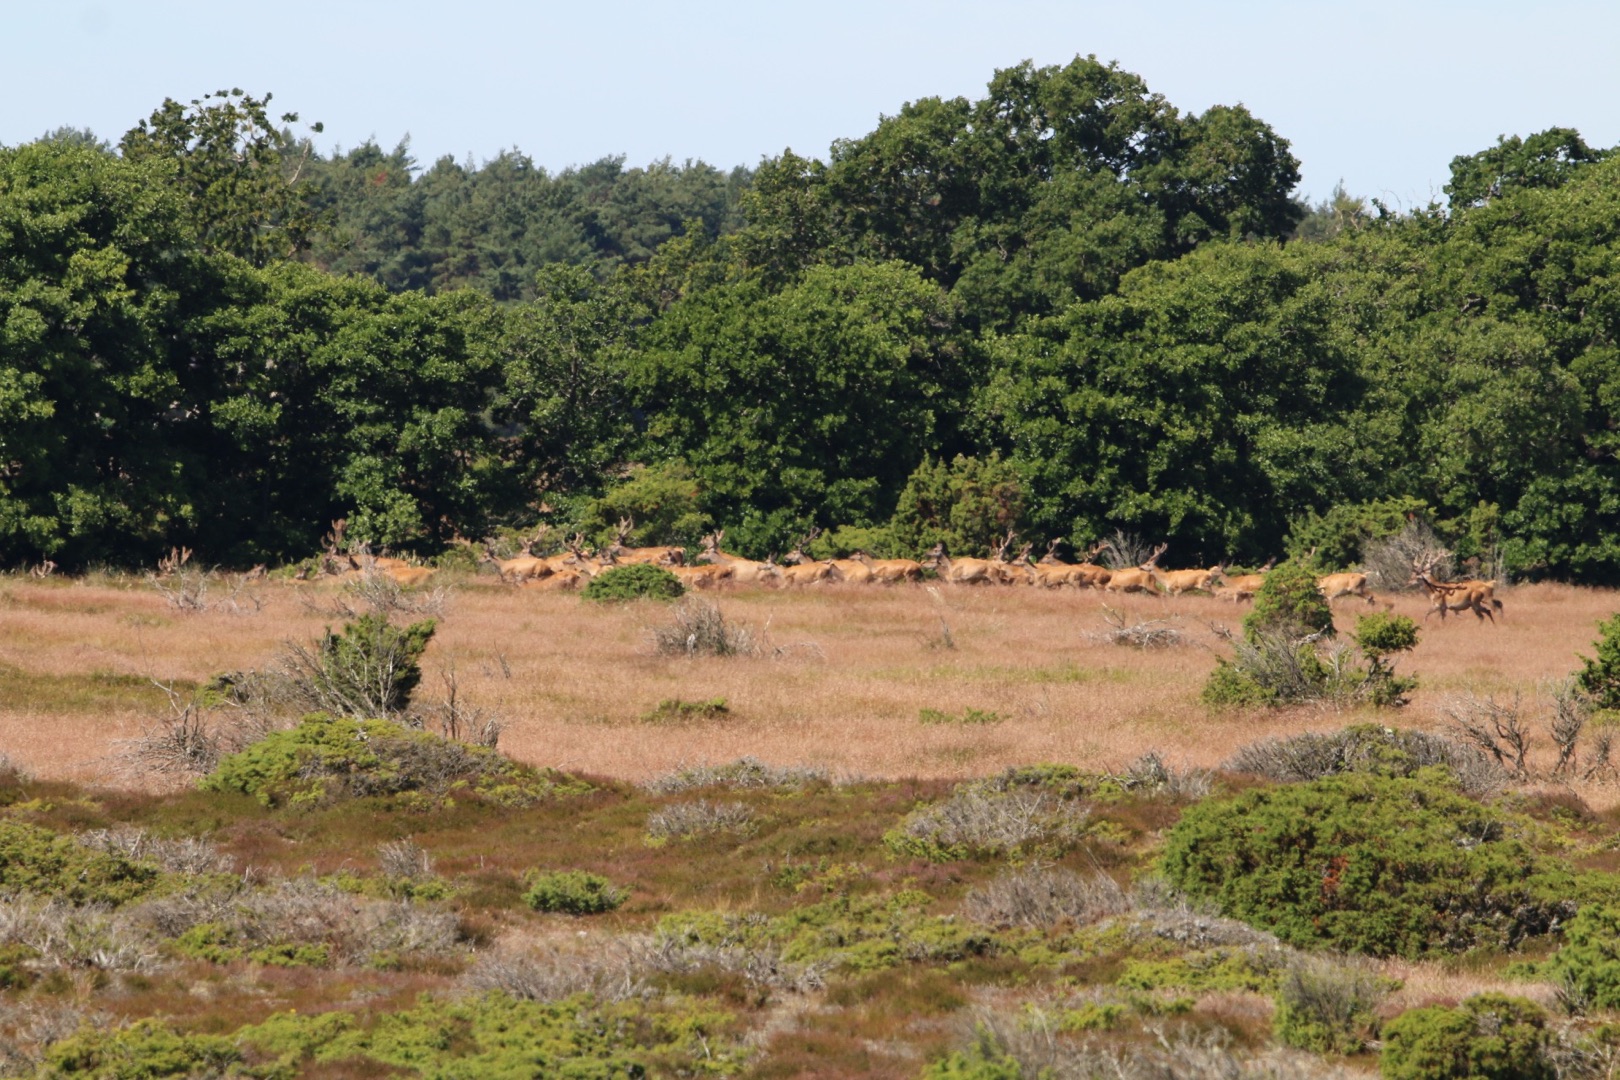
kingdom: Animalia
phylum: Chordata
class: Mammalia
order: Artiodactyla
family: Cervidae
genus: Cervus
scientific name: Cervus elaphus
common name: Krondyr
